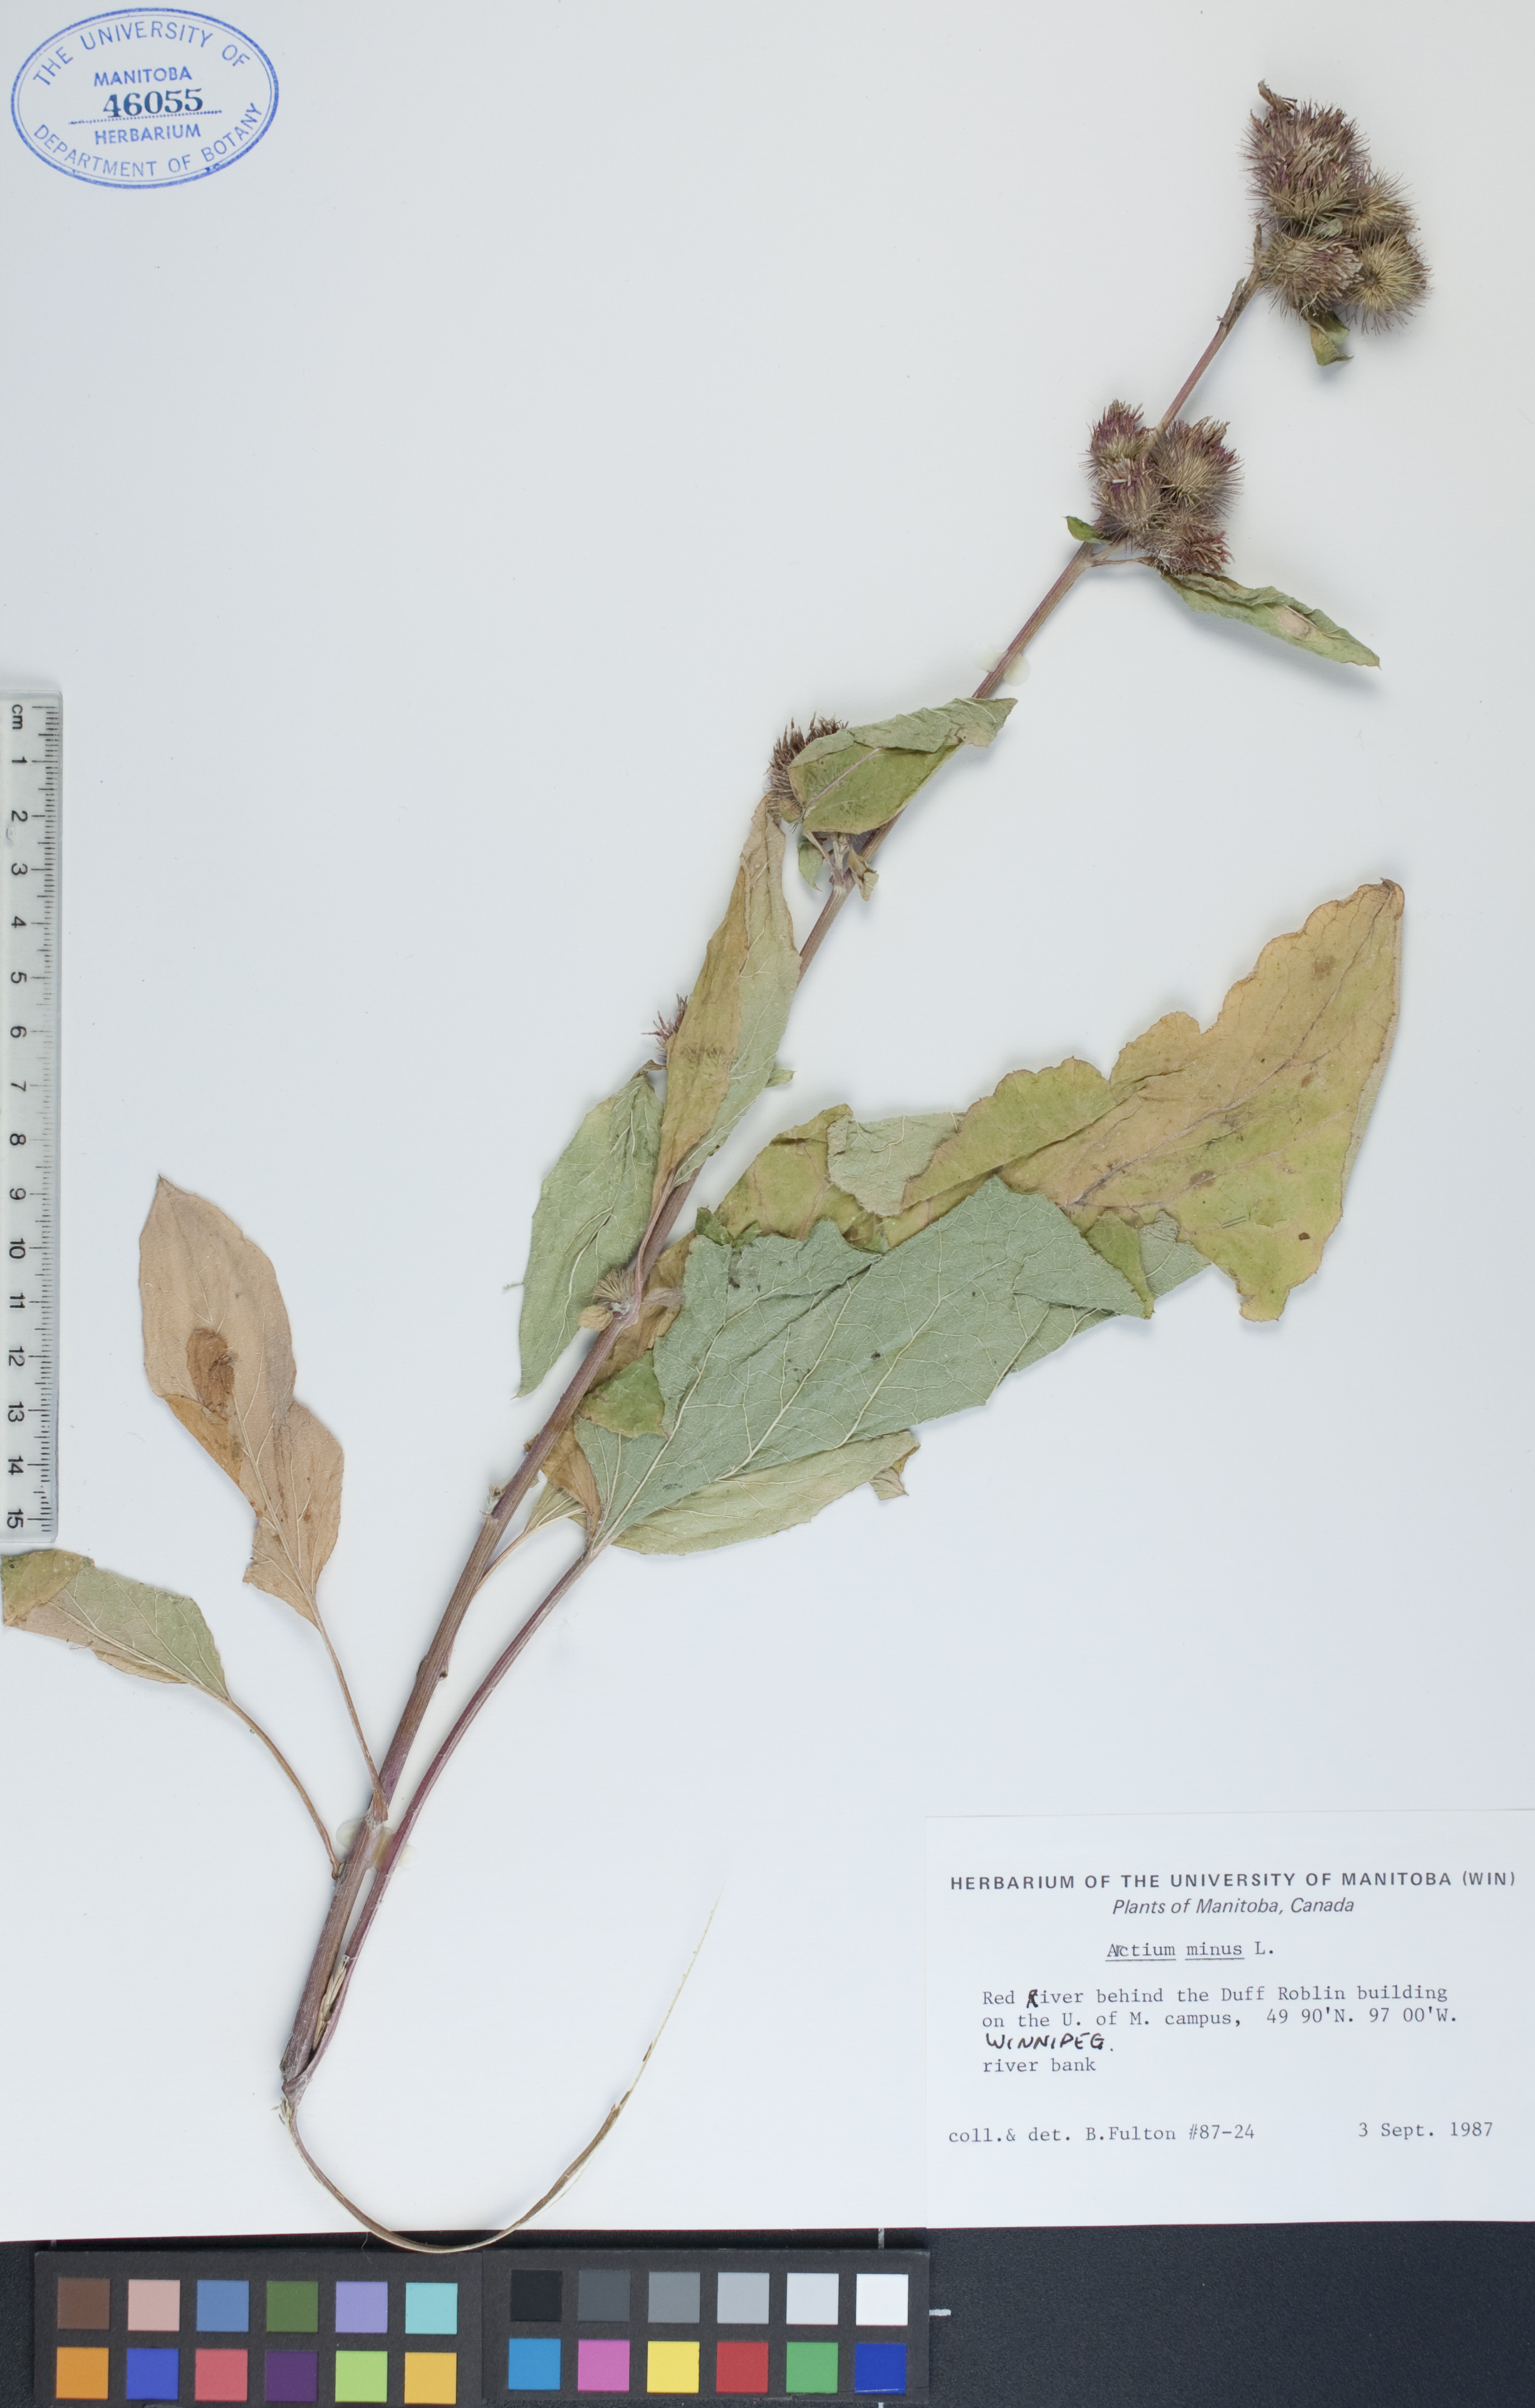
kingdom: Plantae
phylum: Tracheophyta
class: Magnoliopsida
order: Asterales
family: Asteraceae
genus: Arctium
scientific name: Arctium minus
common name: Lesser burdock
